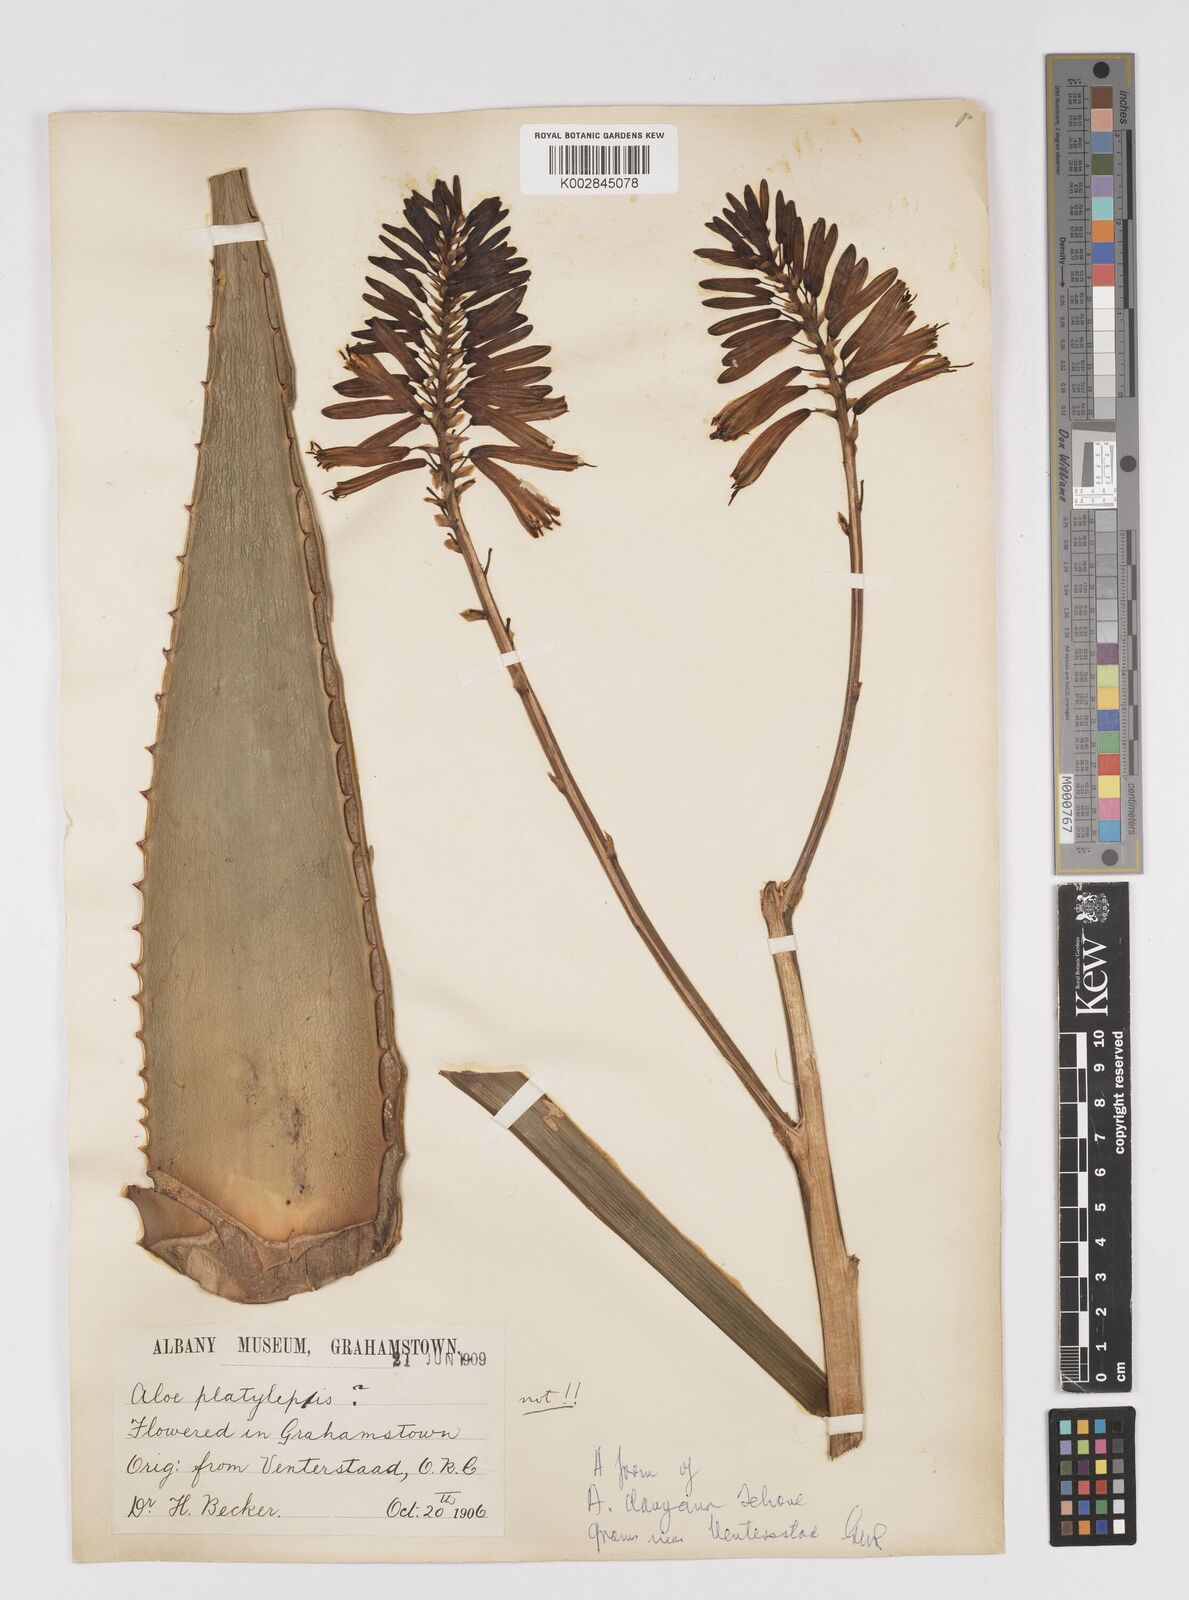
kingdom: Plantae
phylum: Tracheophyta
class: Liliopsida
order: Asparagales
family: Asphodelaceae
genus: Aloe
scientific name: Aloe
